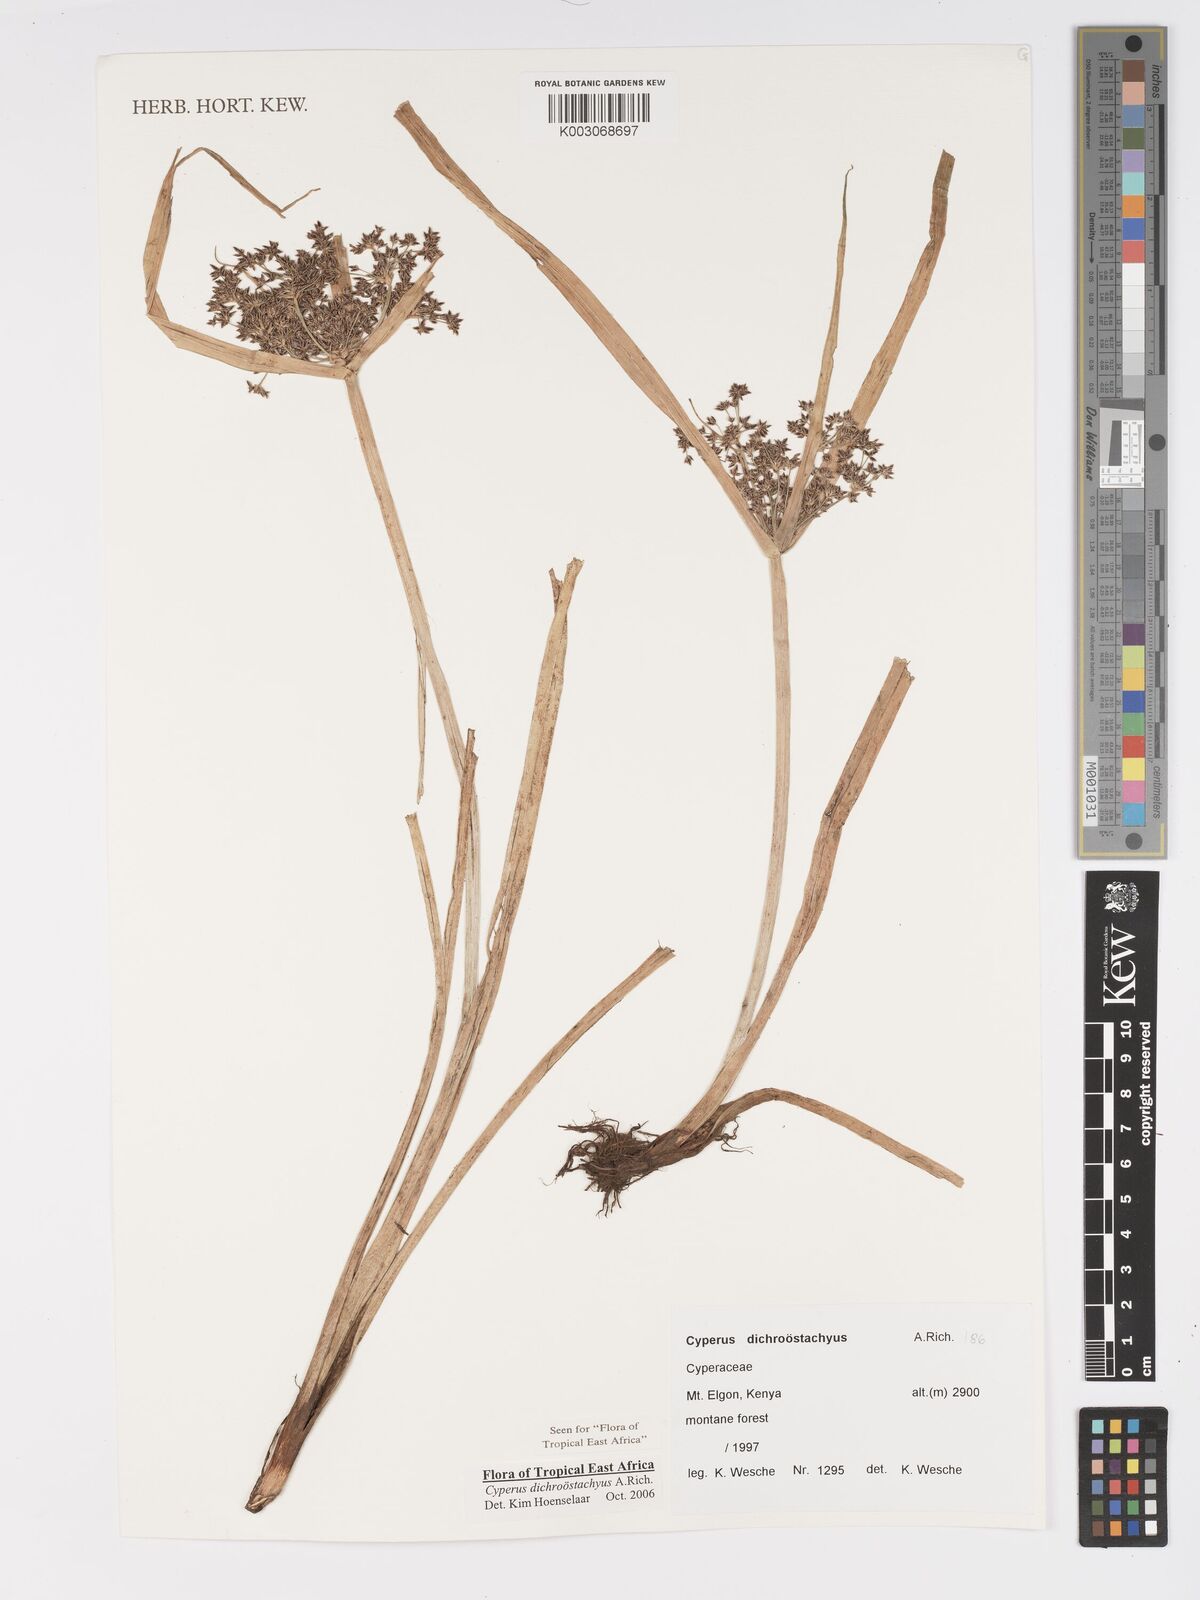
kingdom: Plantae
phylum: Tracheophyta
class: Liliopsida
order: Poales
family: Cyperaceae
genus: Cyperus
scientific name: Cyperus dichrostachyus
